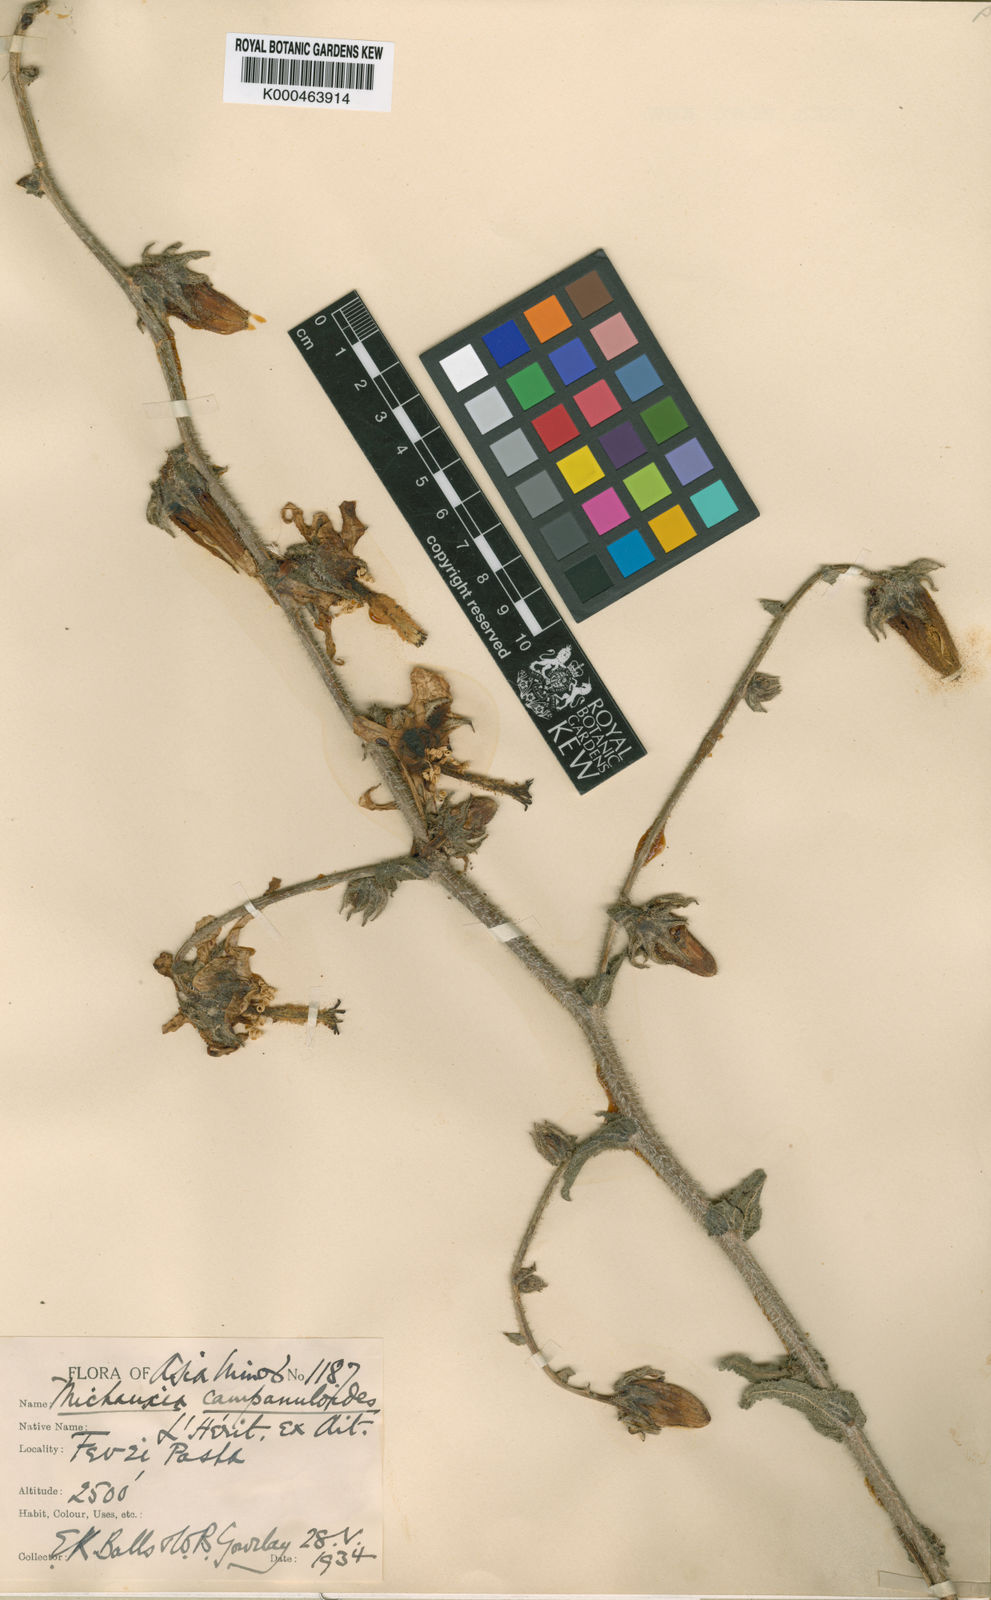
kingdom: Plantae
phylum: Tracheophyta
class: Magnoliopsida
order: Asterales
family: Campanulaceae
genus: Michauxia
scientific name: Michauxia
